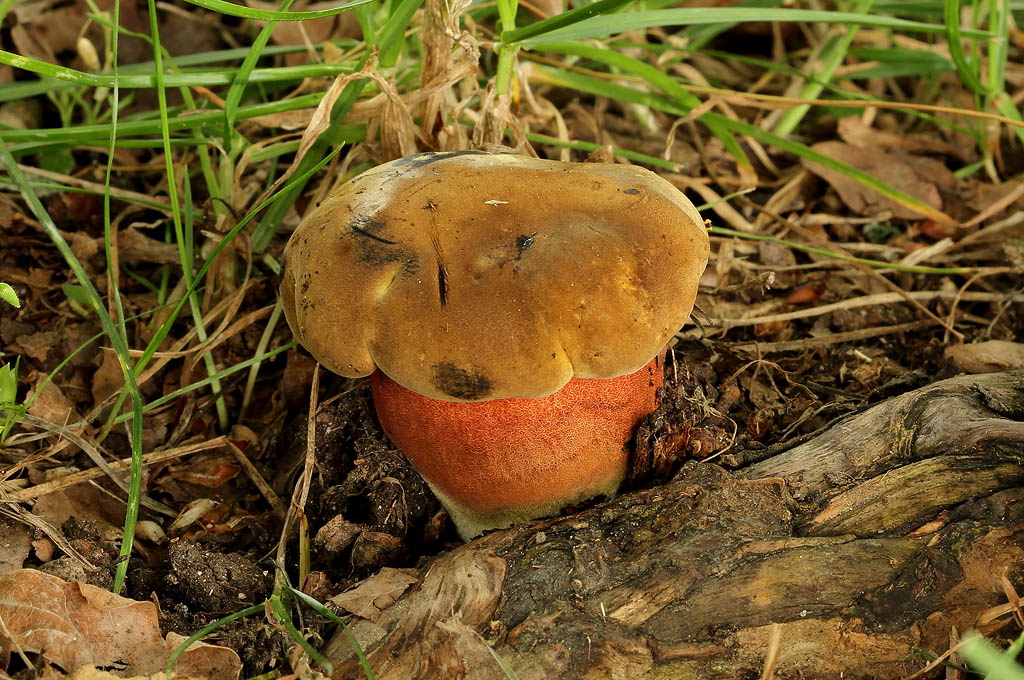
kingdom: Fungi
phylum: Basidiomycota
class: Agaricomycetes
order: Boletales
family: Boletaceae
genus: Neoboletus
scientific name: Neoboletus erythropus
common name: punktstokket indigorørhat
